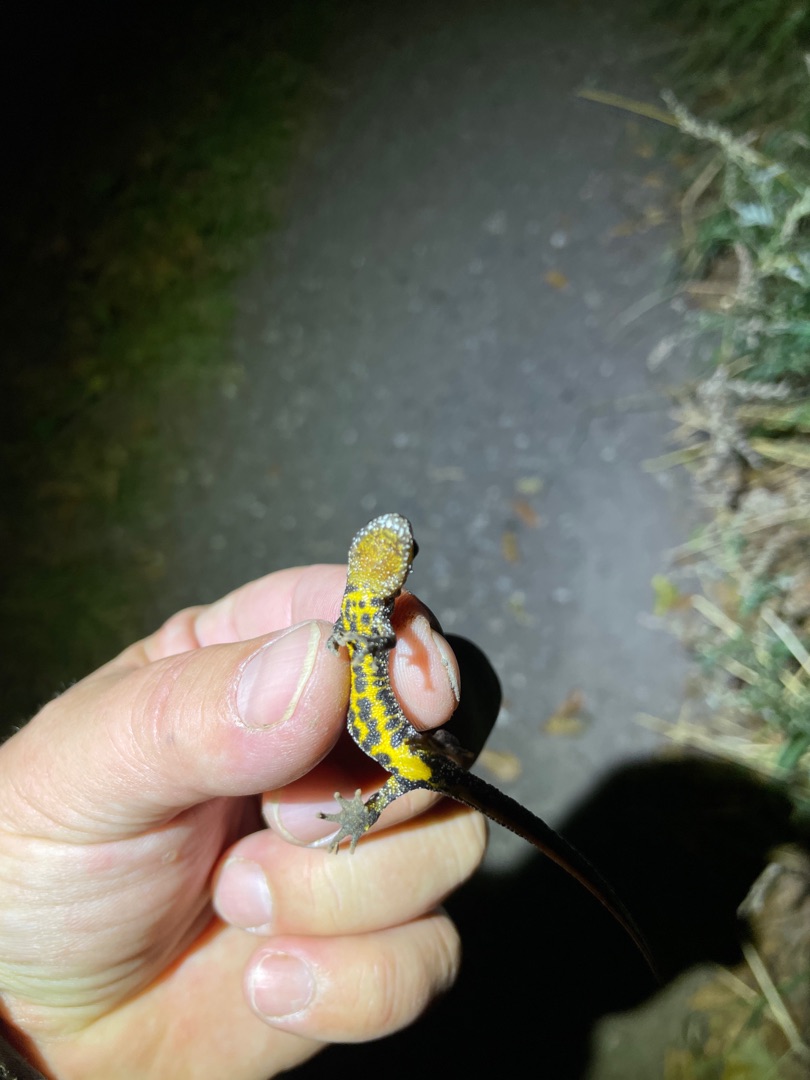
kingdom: Animalia
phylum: Chordata
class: Amphibia
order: Caudata
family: Salamandridae
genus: Triturus
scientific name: Triturus cristatus
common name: Stor vandsalamander
